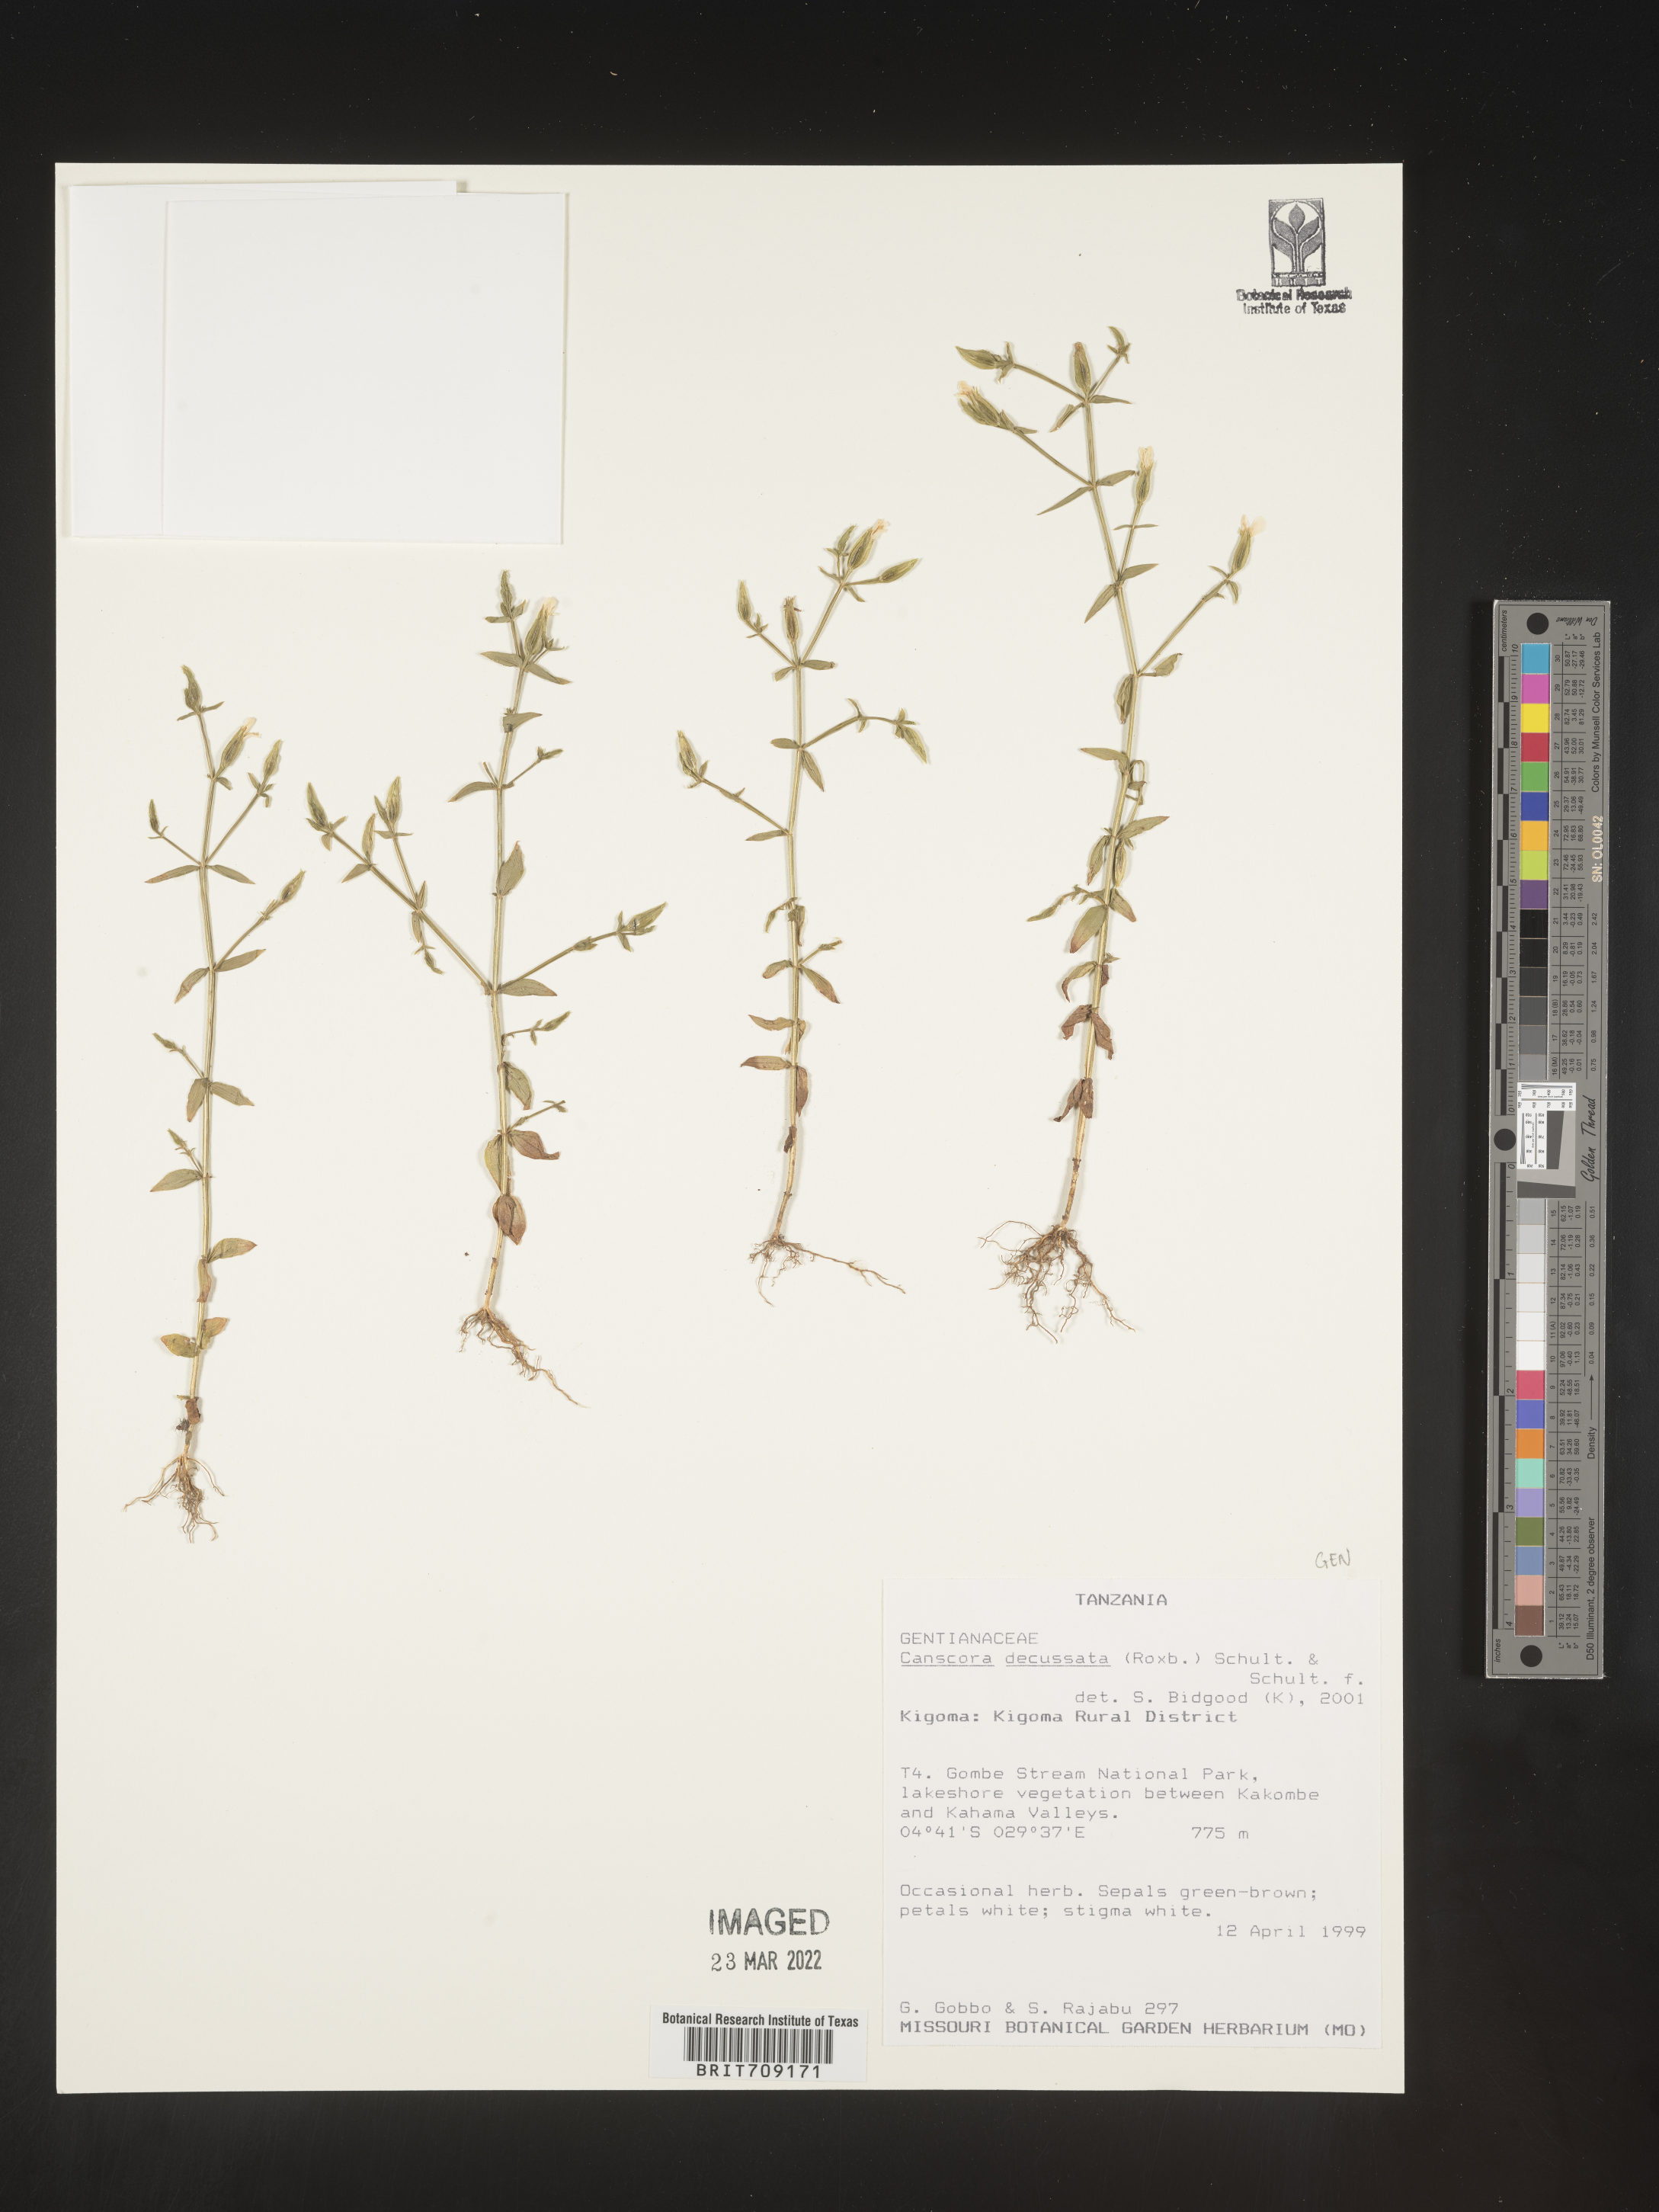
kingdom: Plantae
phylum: Tracheophyta
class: Magnoliopsida
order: Gentianales
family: Gentianaceae
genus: Canscora
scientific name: Canscora
